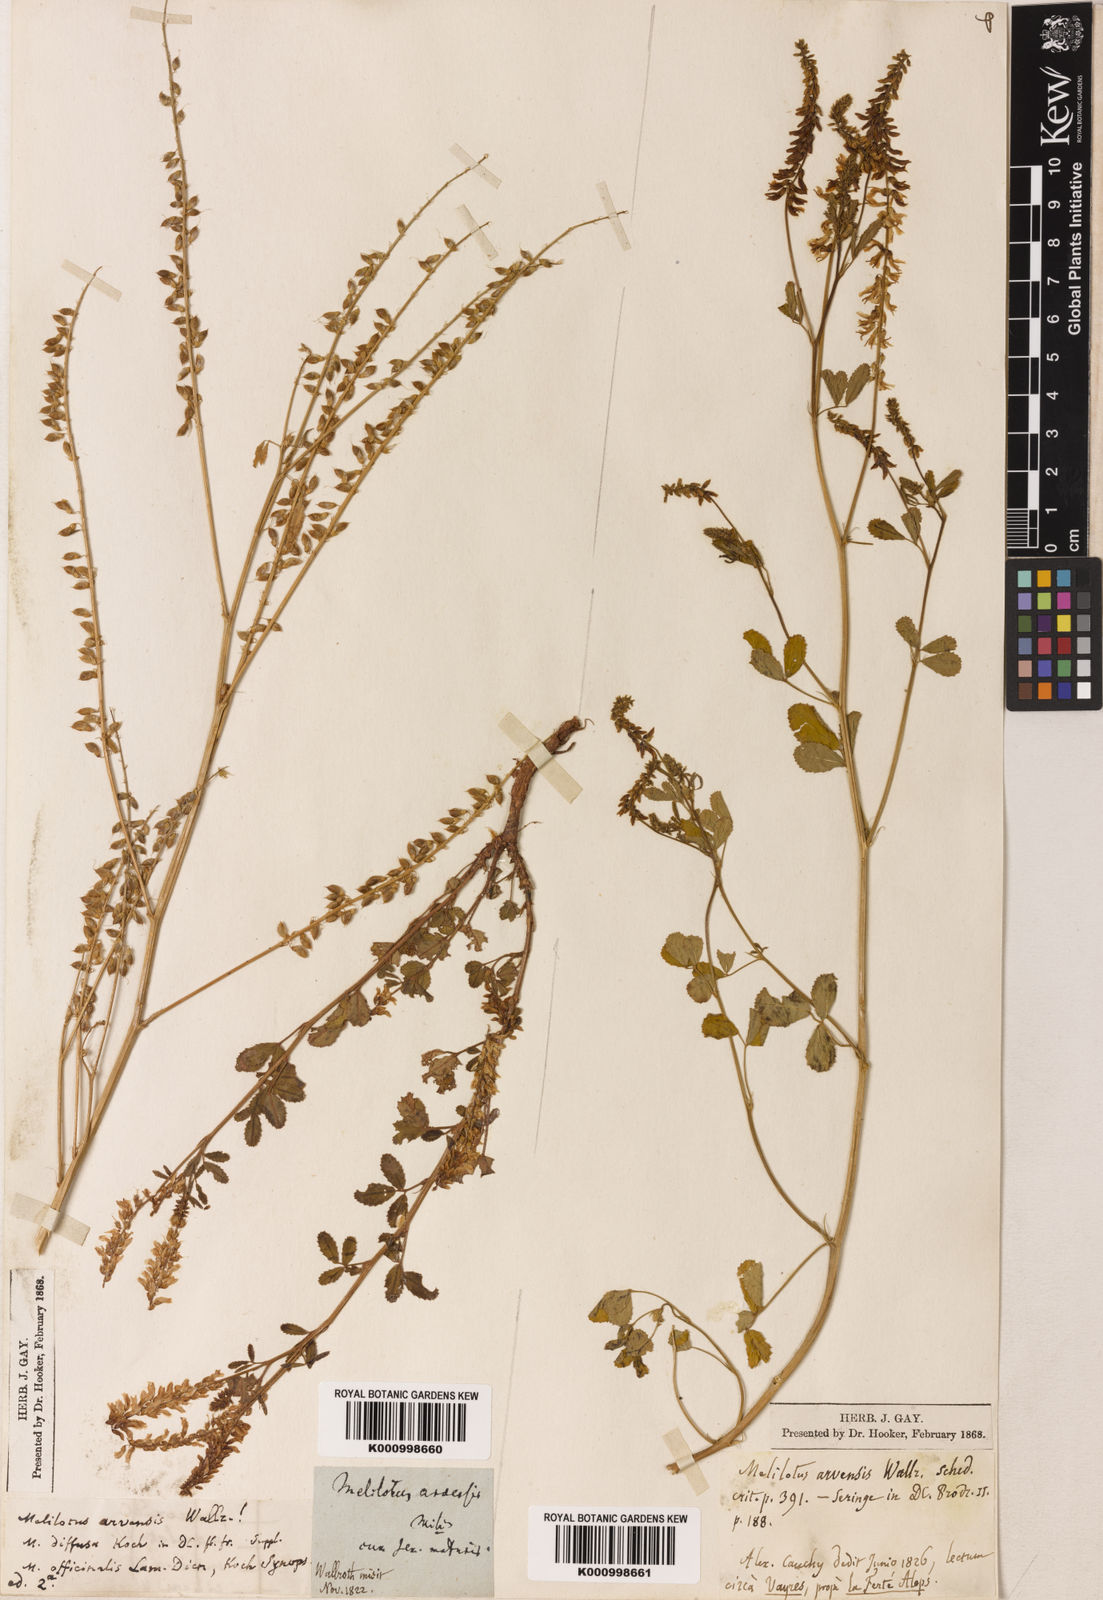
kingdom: Plantae
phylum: Tracheophyta
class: Magnoliopsida
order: Fabales
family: Fabaceae
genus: Melilotus
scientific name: Melilotus officinalis
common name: Sweetclover
